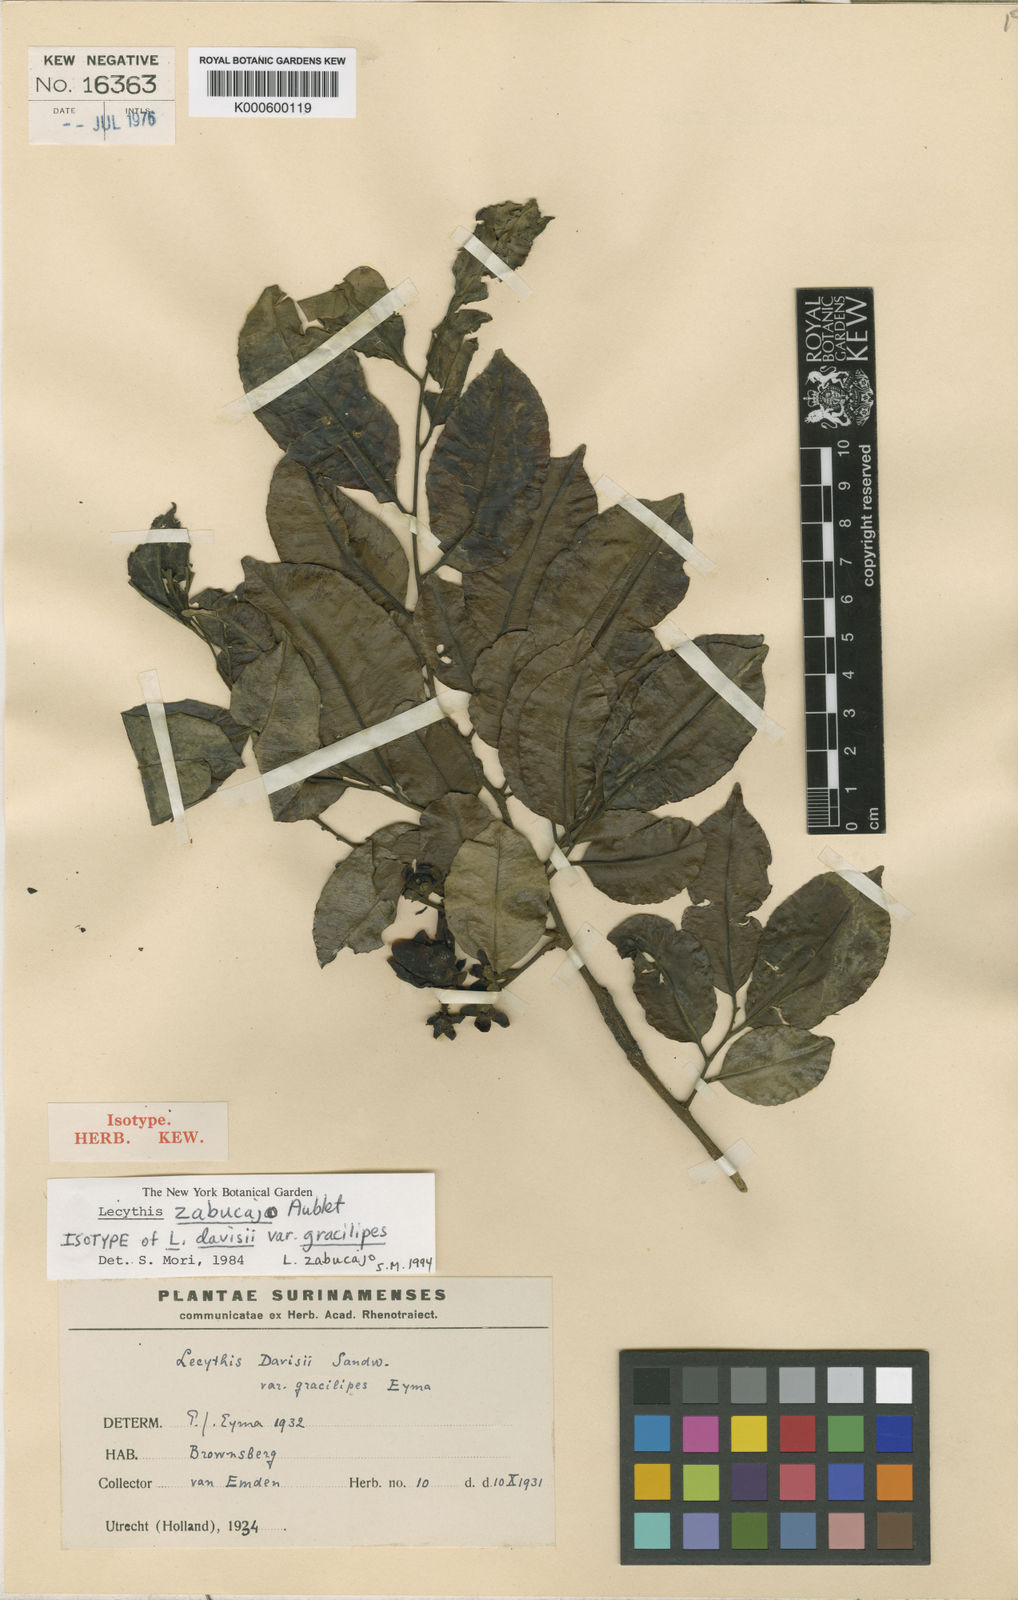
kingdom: Plantae
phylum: Tracheophyta
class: Magnoliopsida
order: Ericales
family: Lecythidaceae
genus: Lecythis
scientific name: Lecythis zabucajo
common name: Paradise-nut
